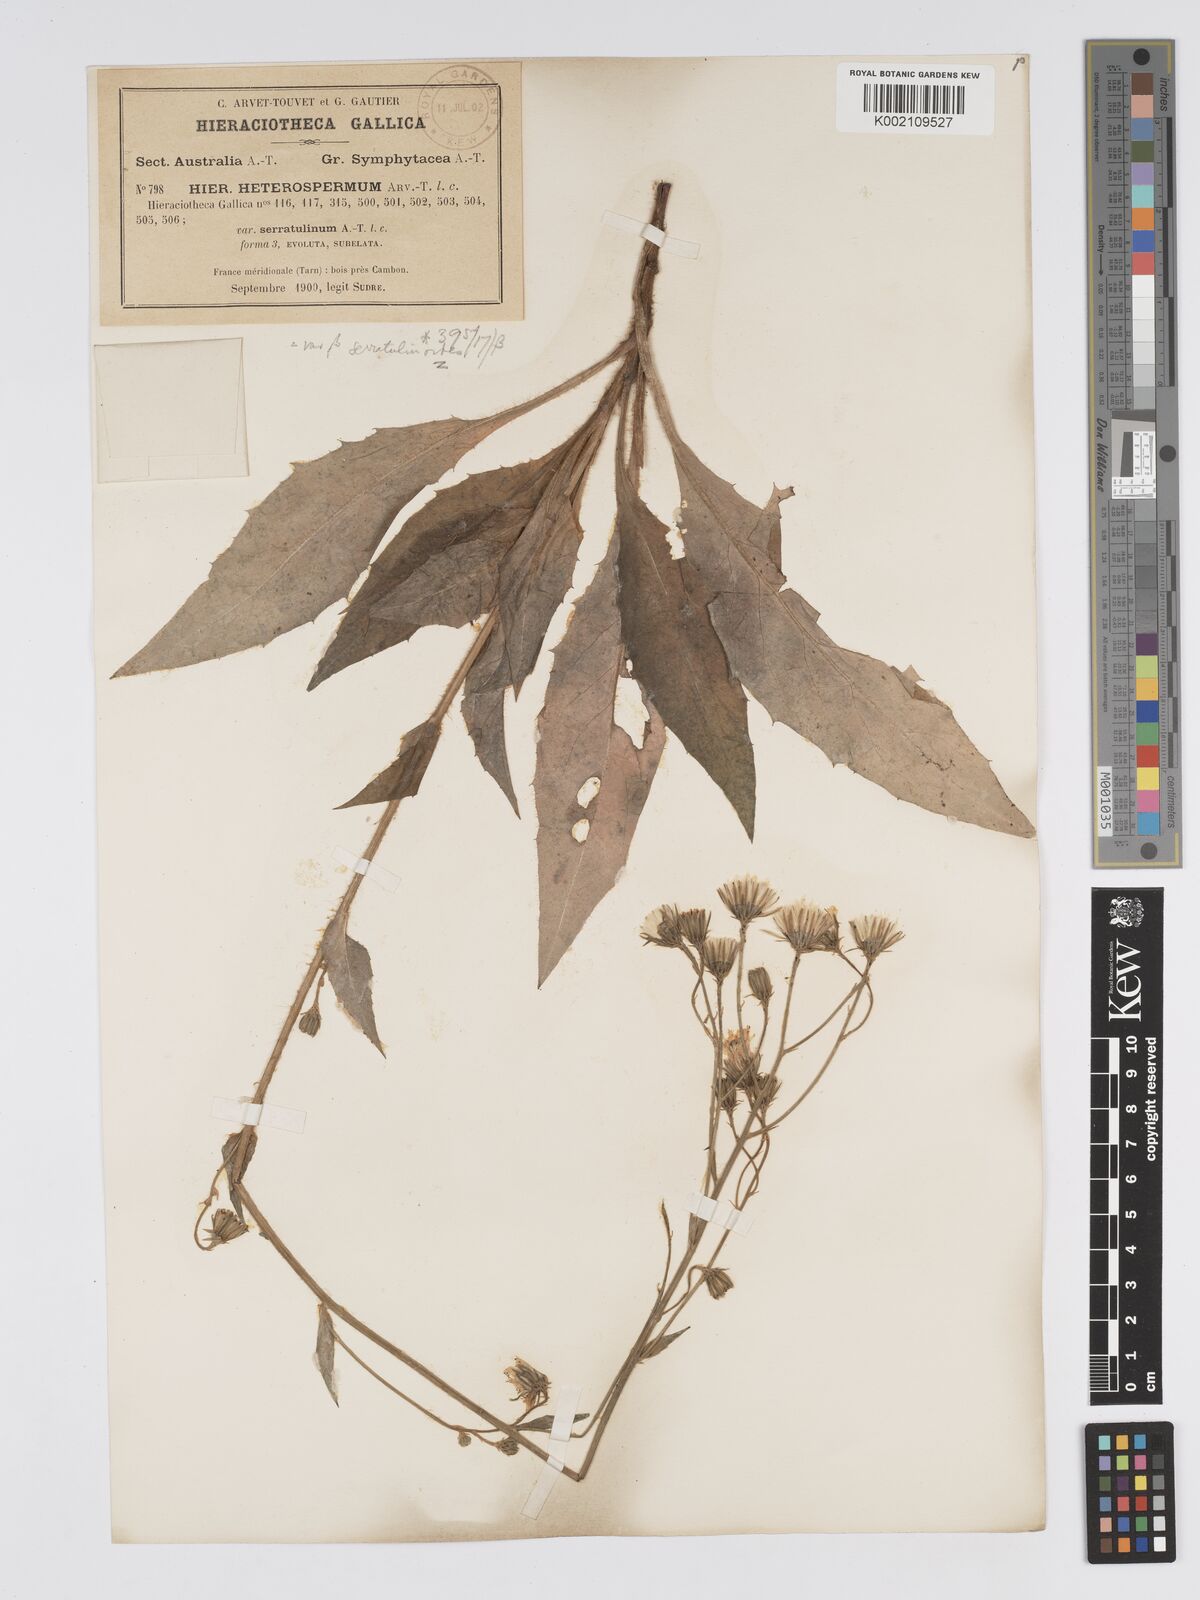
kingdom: Plantae
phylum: Tracheophyta
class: Magnoliopsida
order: Asterales
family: Asteraceae
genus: Hieracium
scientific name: Hieracium racemosum
